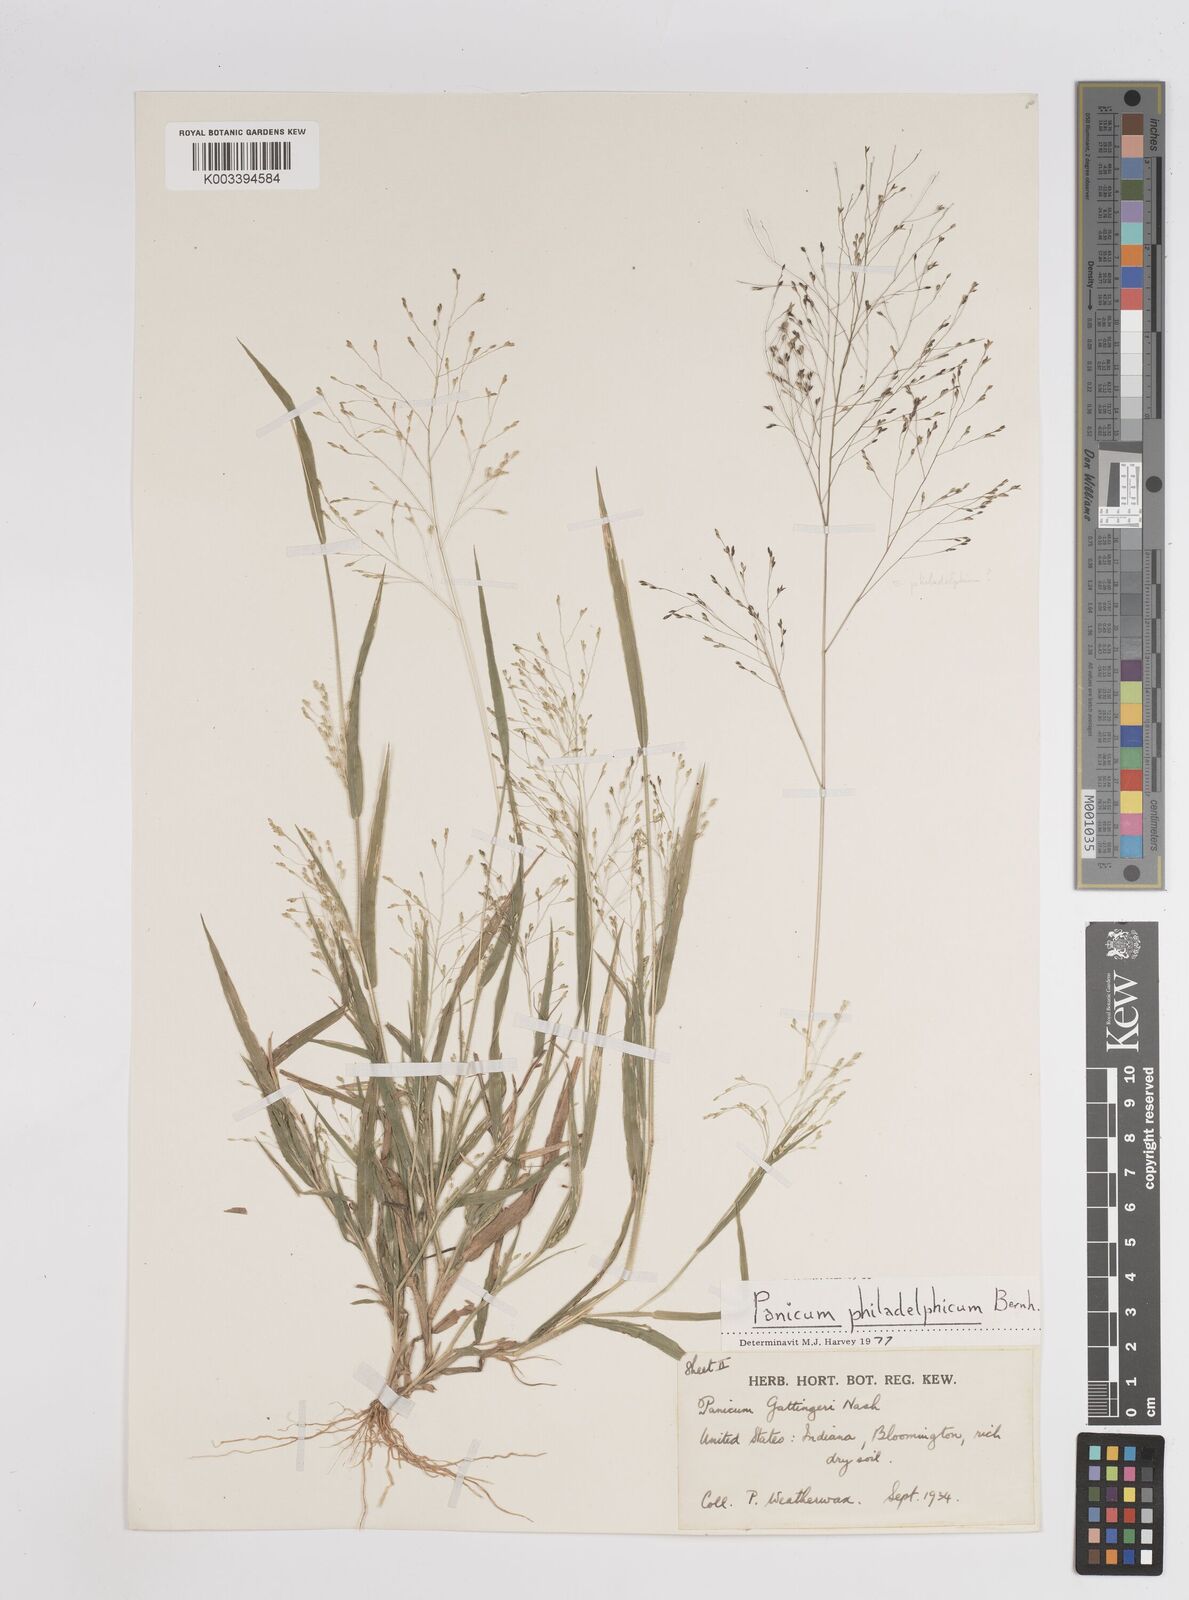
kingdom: Plantae
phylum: Tracheophyta
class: Liliopsida
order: Poales
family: Poaceae
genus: Panicum
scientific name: Panicum philadelphicum
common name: Philadelphia witchgrass
